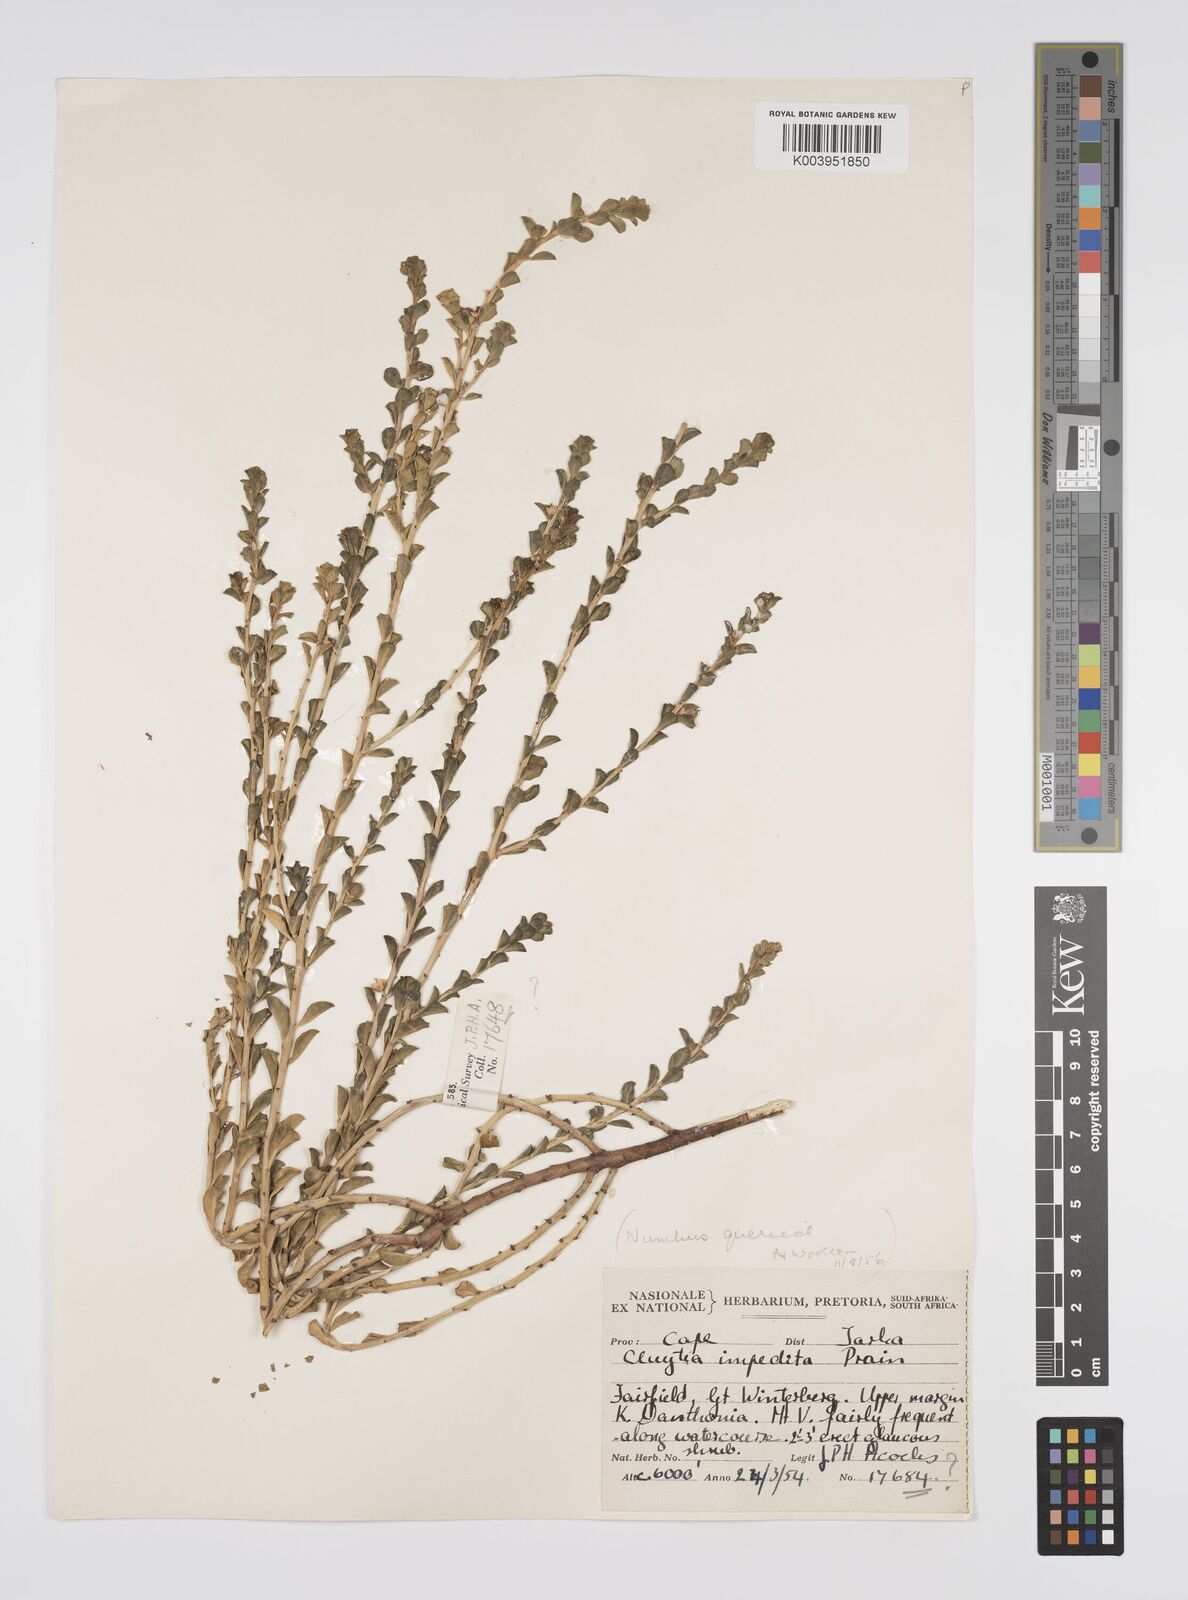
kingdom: Plantae
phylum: Tracheophyta
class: Magnoliopsida
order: Malpighiales
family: Peraceae
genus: Clutia
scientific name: Clutia impedita
